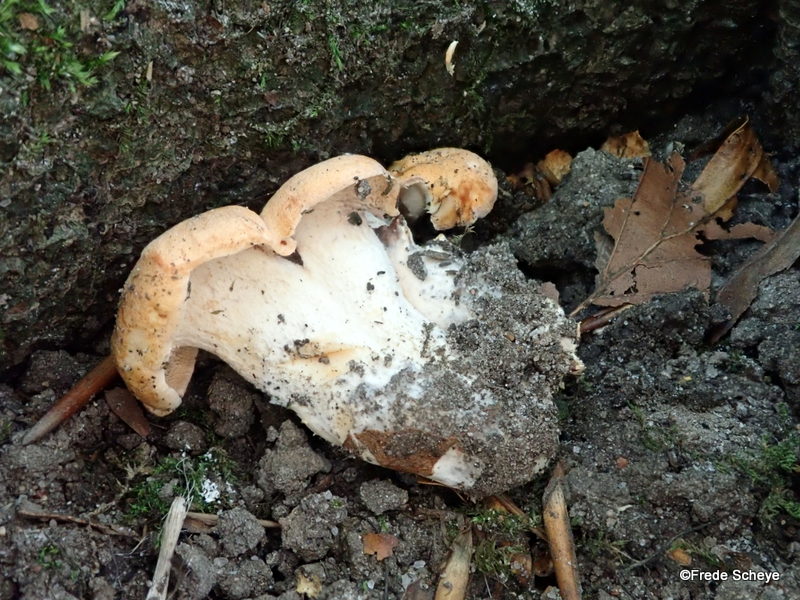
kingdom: Fungi
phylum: Basidiomycota
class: Agaricomycetes
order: Cantharellales
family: Hydnaceae
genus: Hydnum
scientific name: Hydnum repandum
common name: almindelig pigsvamp
